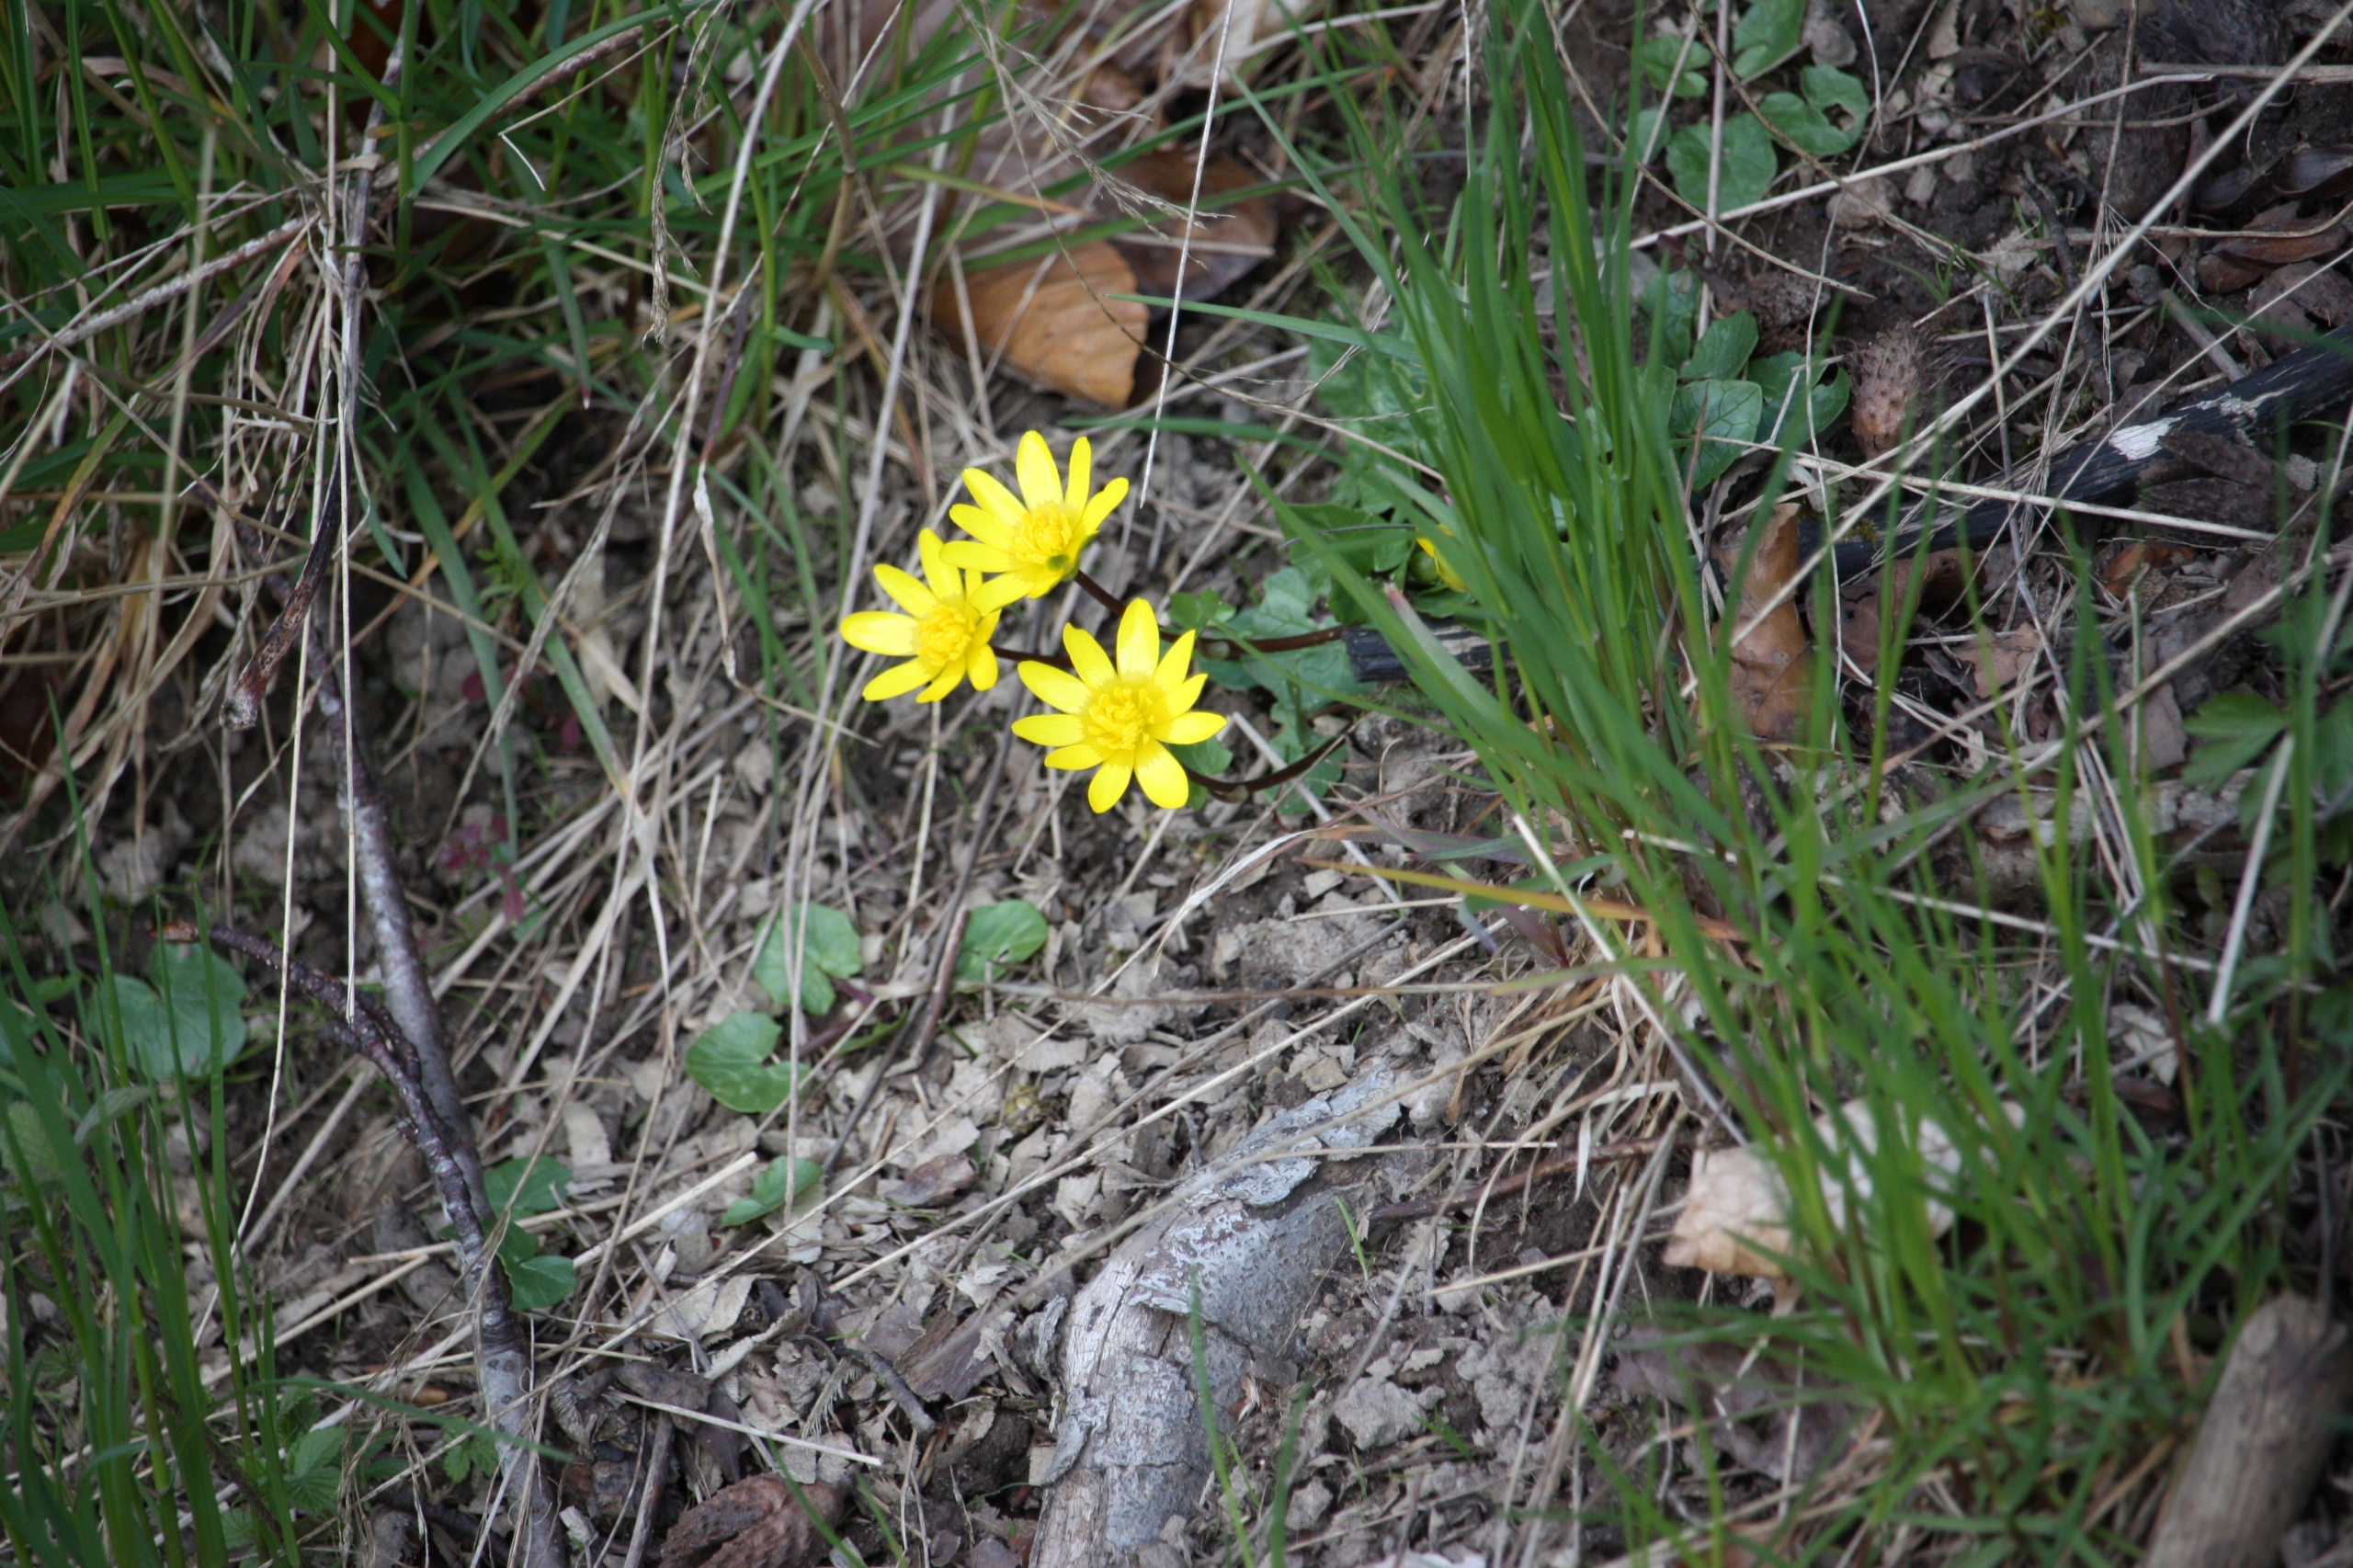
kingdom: Plantae
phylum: Tracheophyta
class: Magnoliopsida
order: Ranunculales
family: Ranunculaceae
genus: Ficaria
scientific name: Ficaria verna
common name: Vorterod
